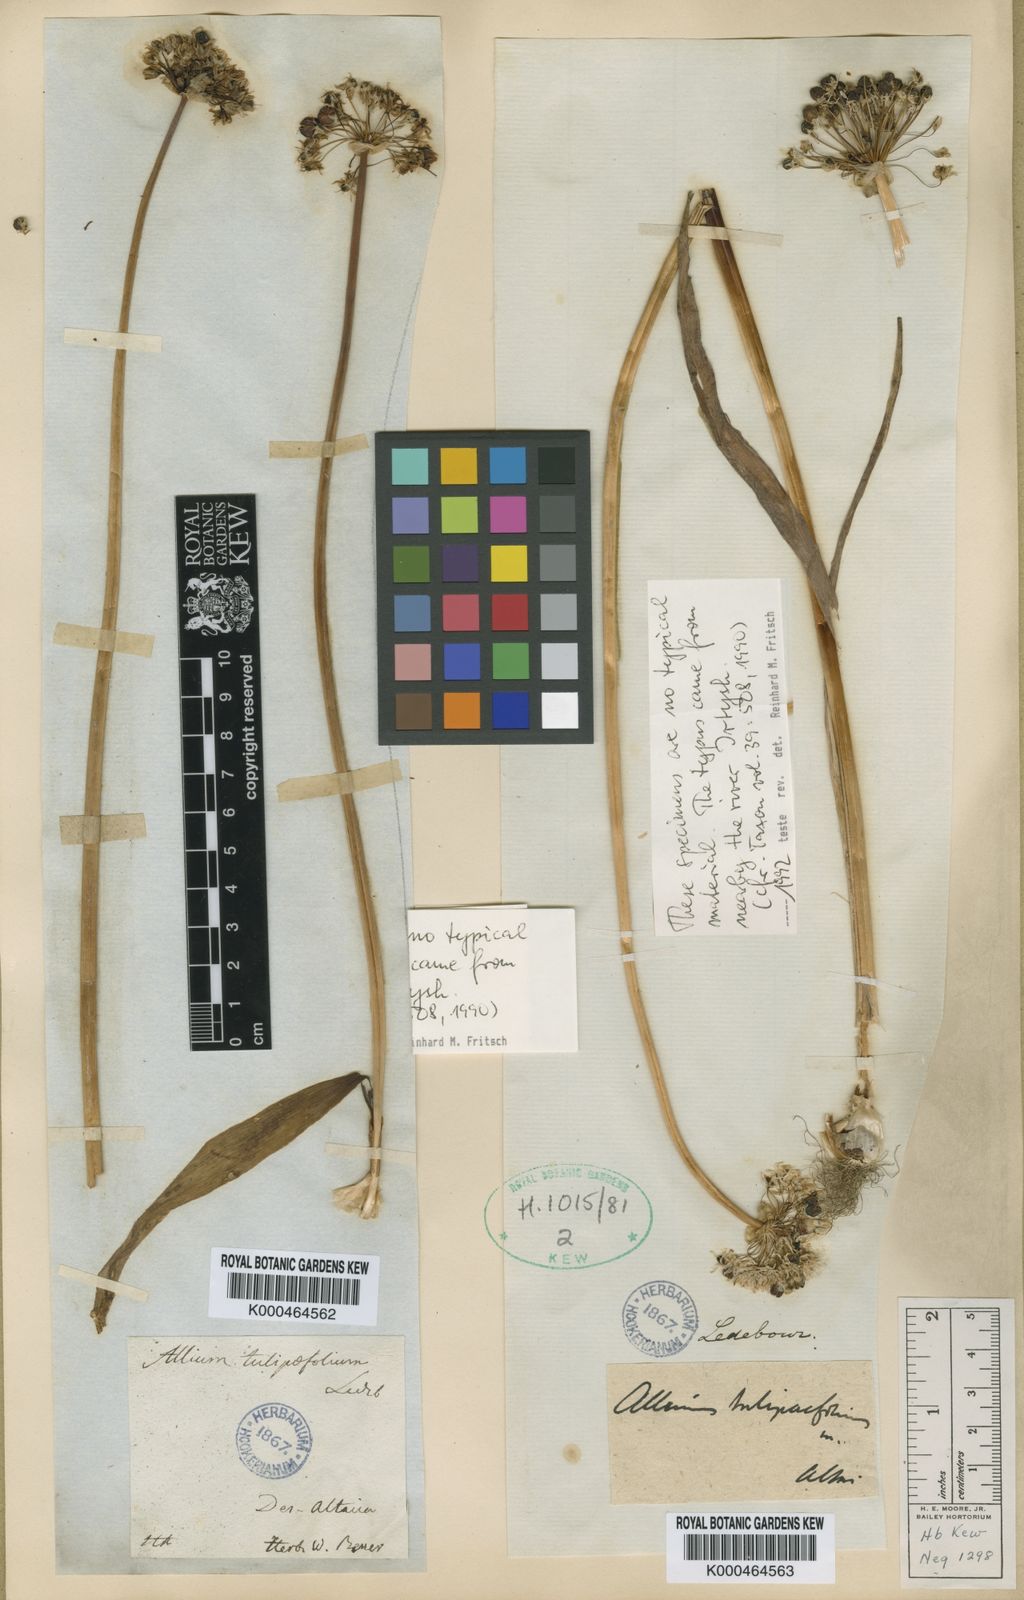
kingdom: Plantae
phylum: Tracheophyta
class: Liliopsida
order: Asparagales
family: Amaryllidaceae
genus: Allium
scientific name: Allium
